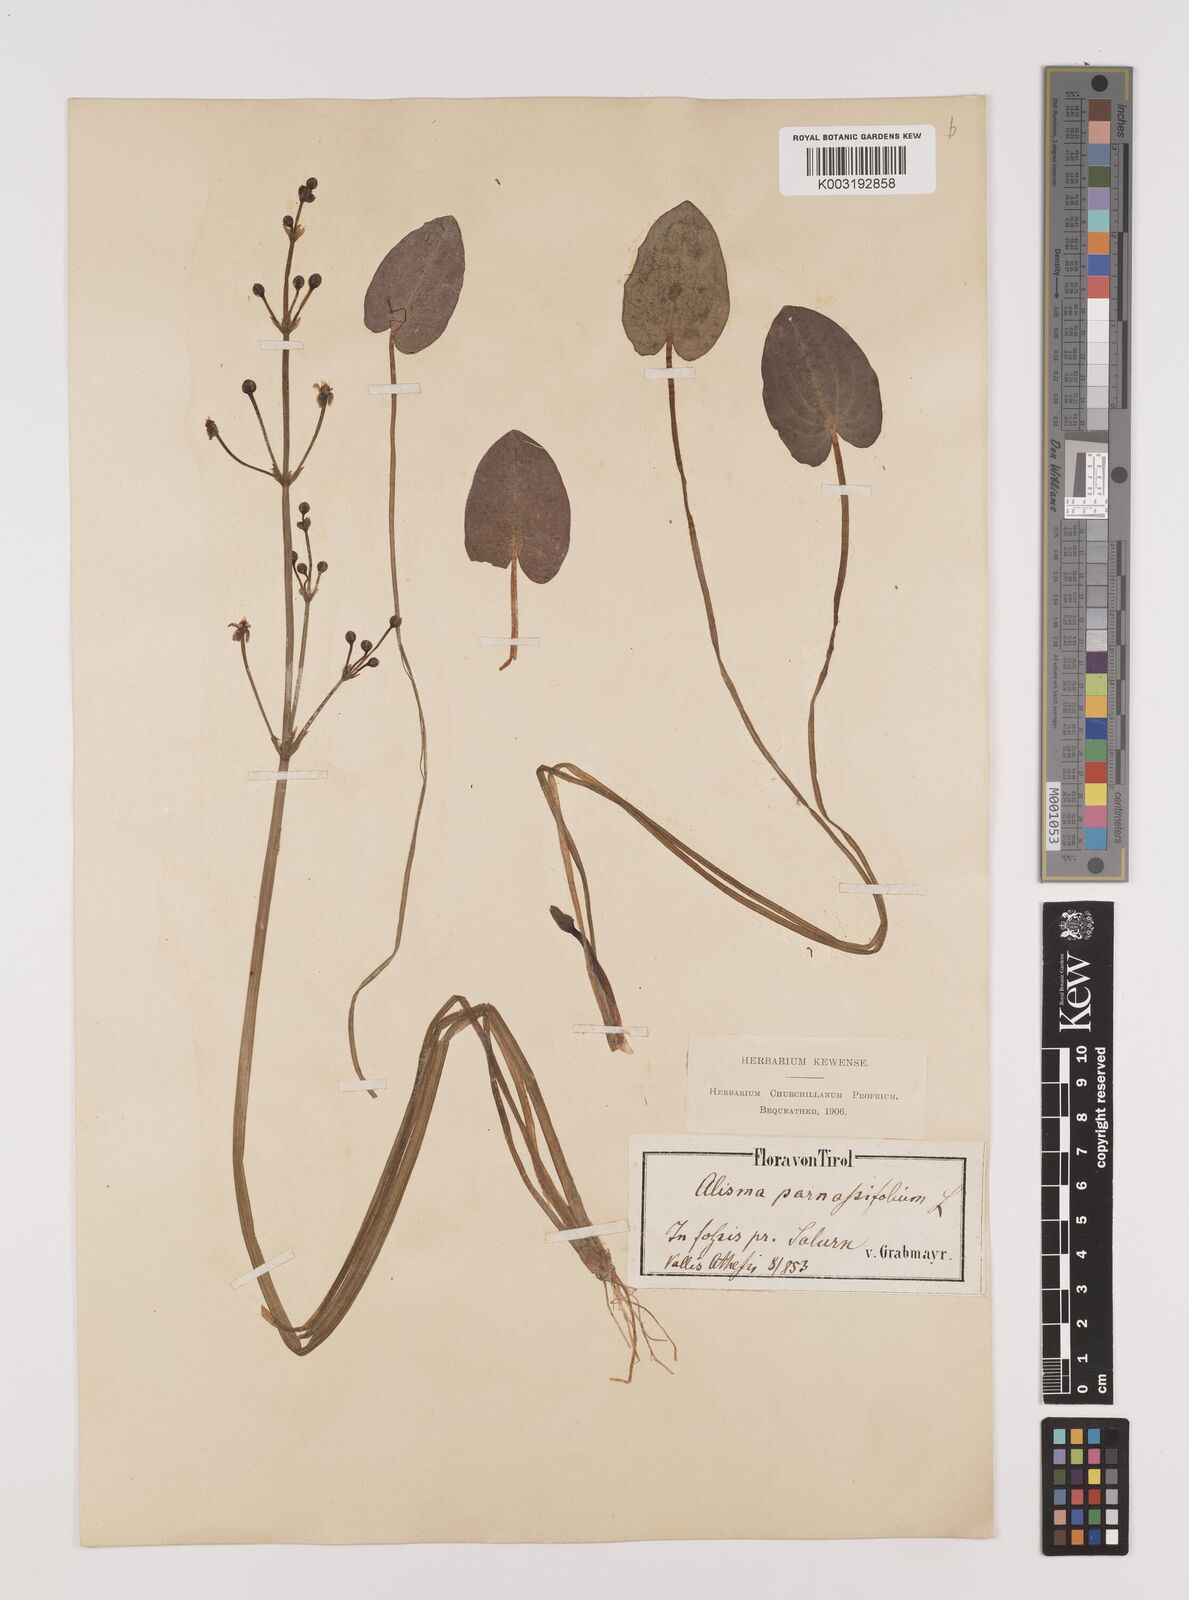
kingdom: Plantae
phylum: Tracheophyta
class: Liliopsida
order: Alismatales
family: Alismataceae
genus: Caldesia
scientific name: Caldesia parnassifolia
